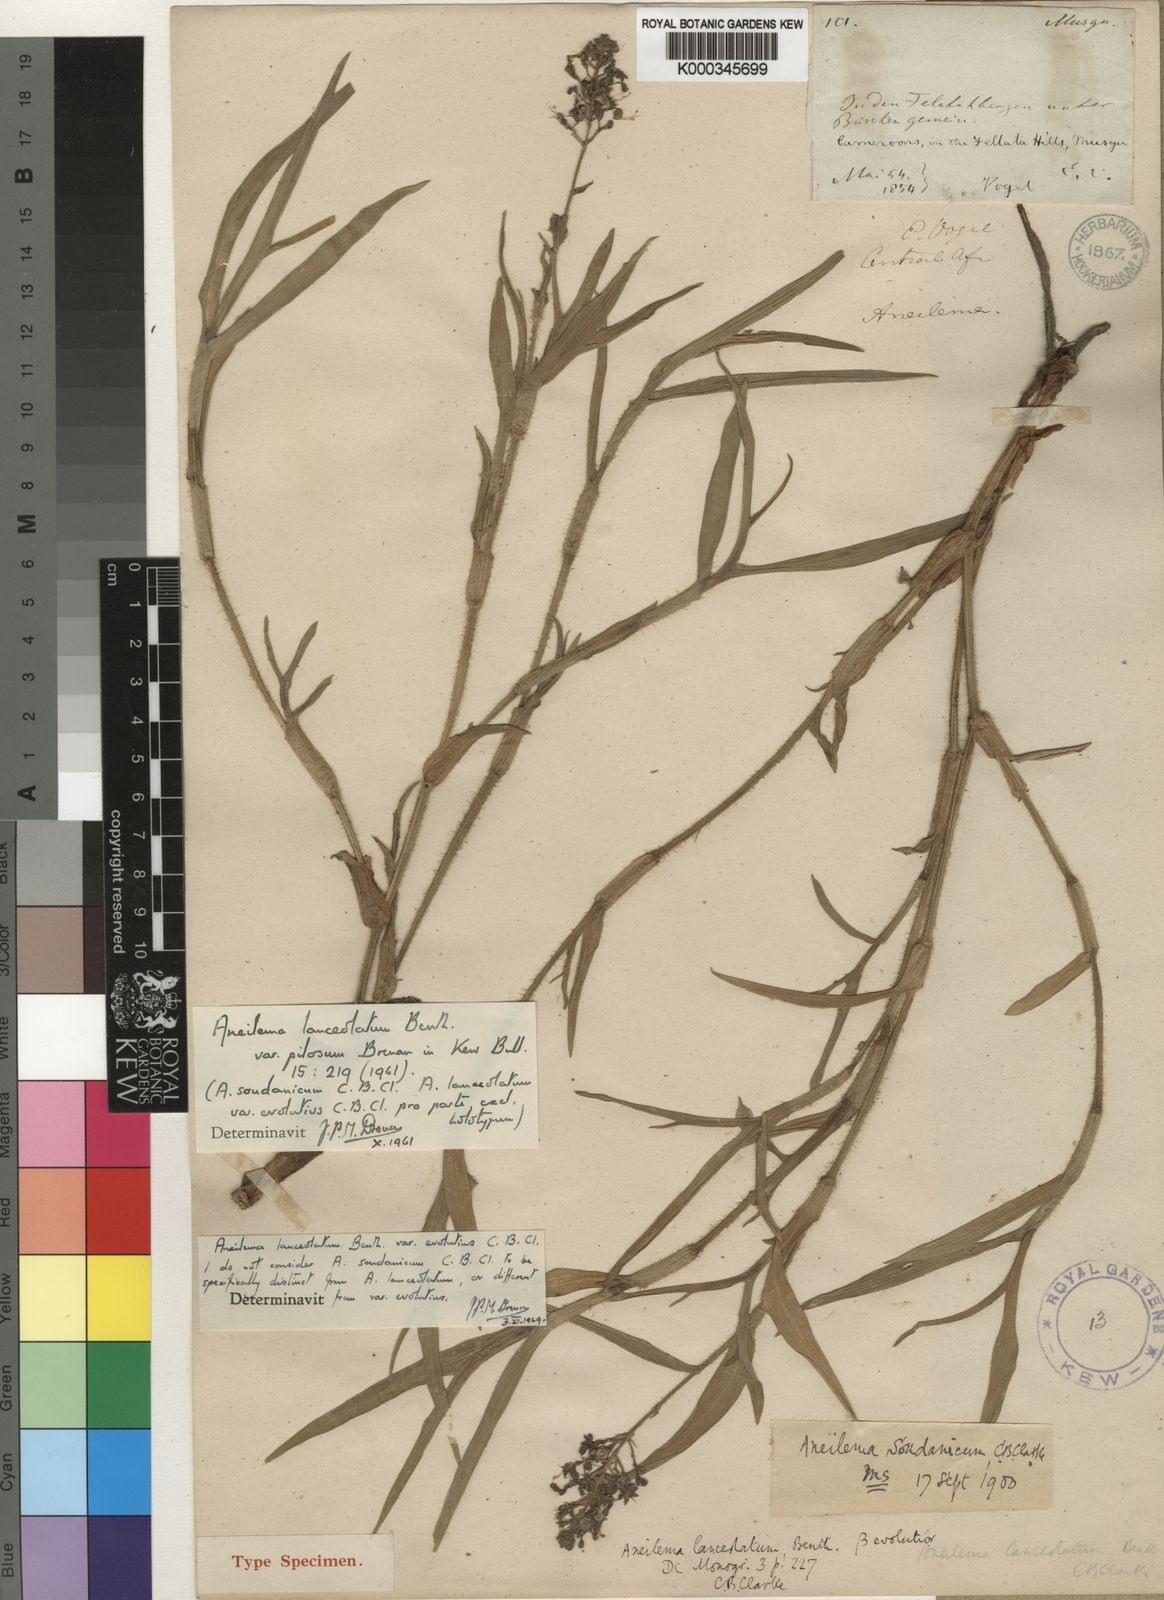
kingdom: Plantae
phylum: Tracheophyta
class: Liliopsida
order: Commelinales
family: Commelinaceae
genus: Aneilema
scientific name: Aneilema lanceolatum
